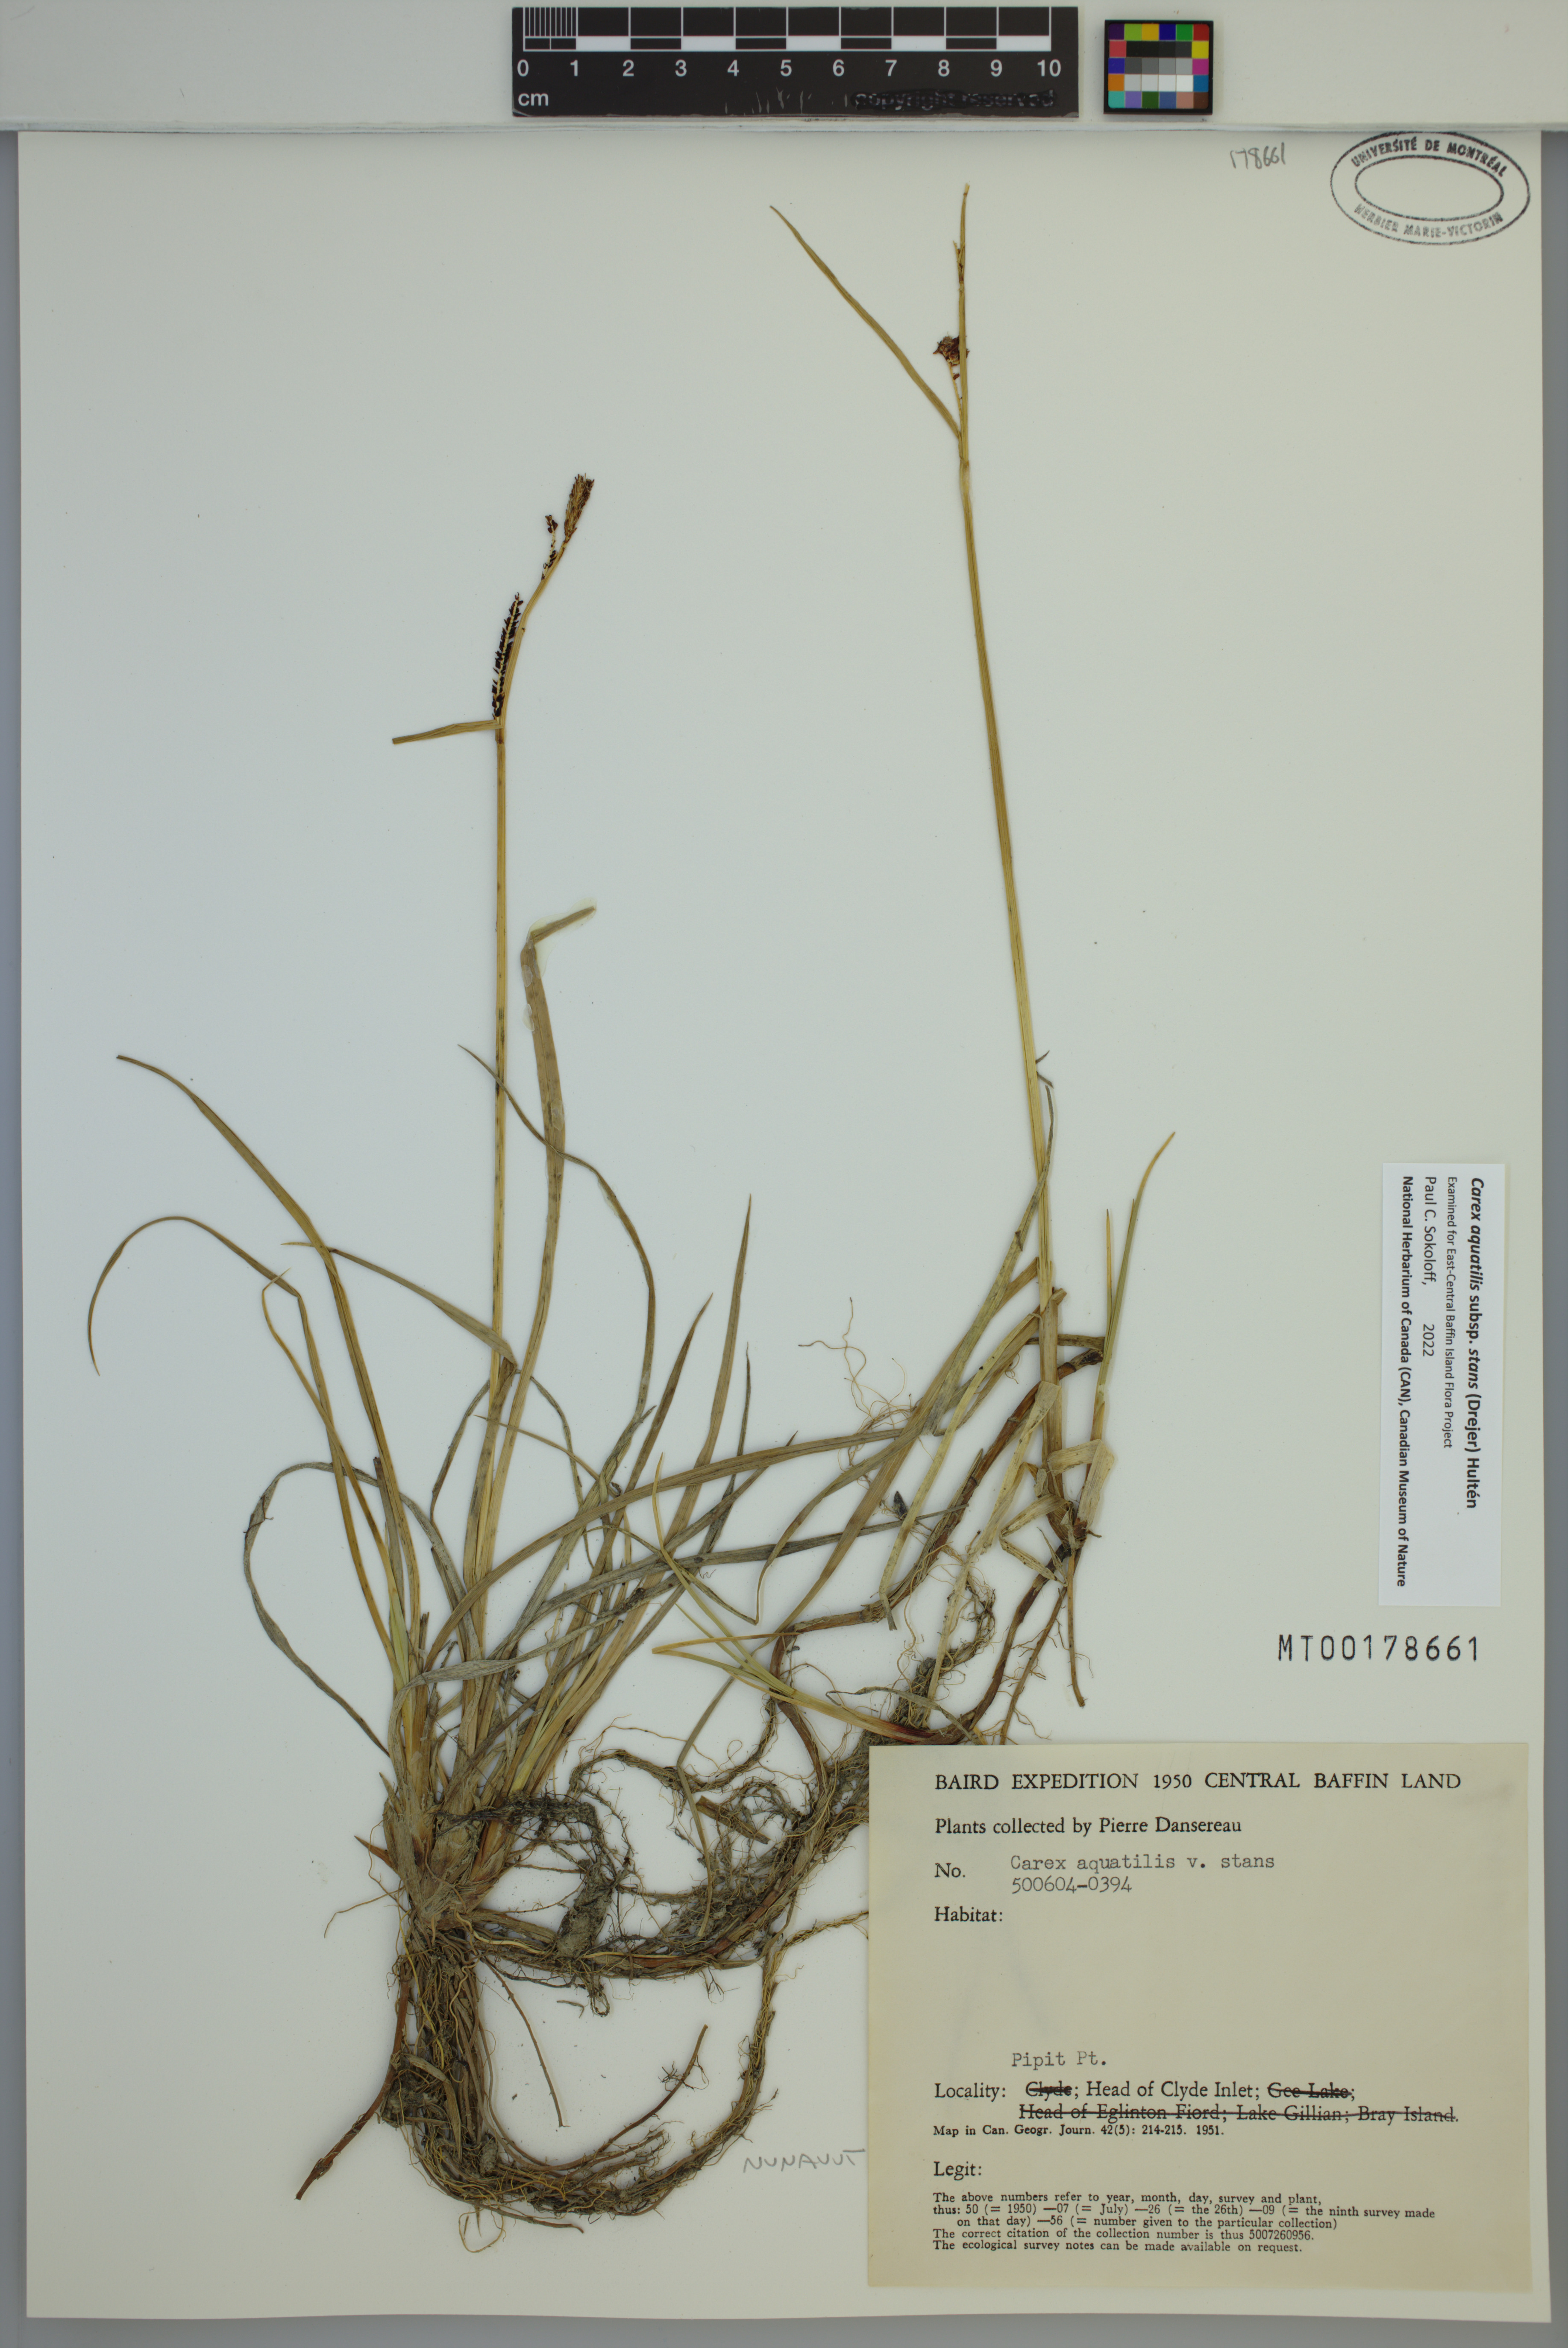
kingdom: Plantae
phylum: Tracheophyta
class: Liliopsida
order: Poales
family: Cyperaceae
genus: Carex
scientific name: Carex aquatilis
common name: Water sedge
